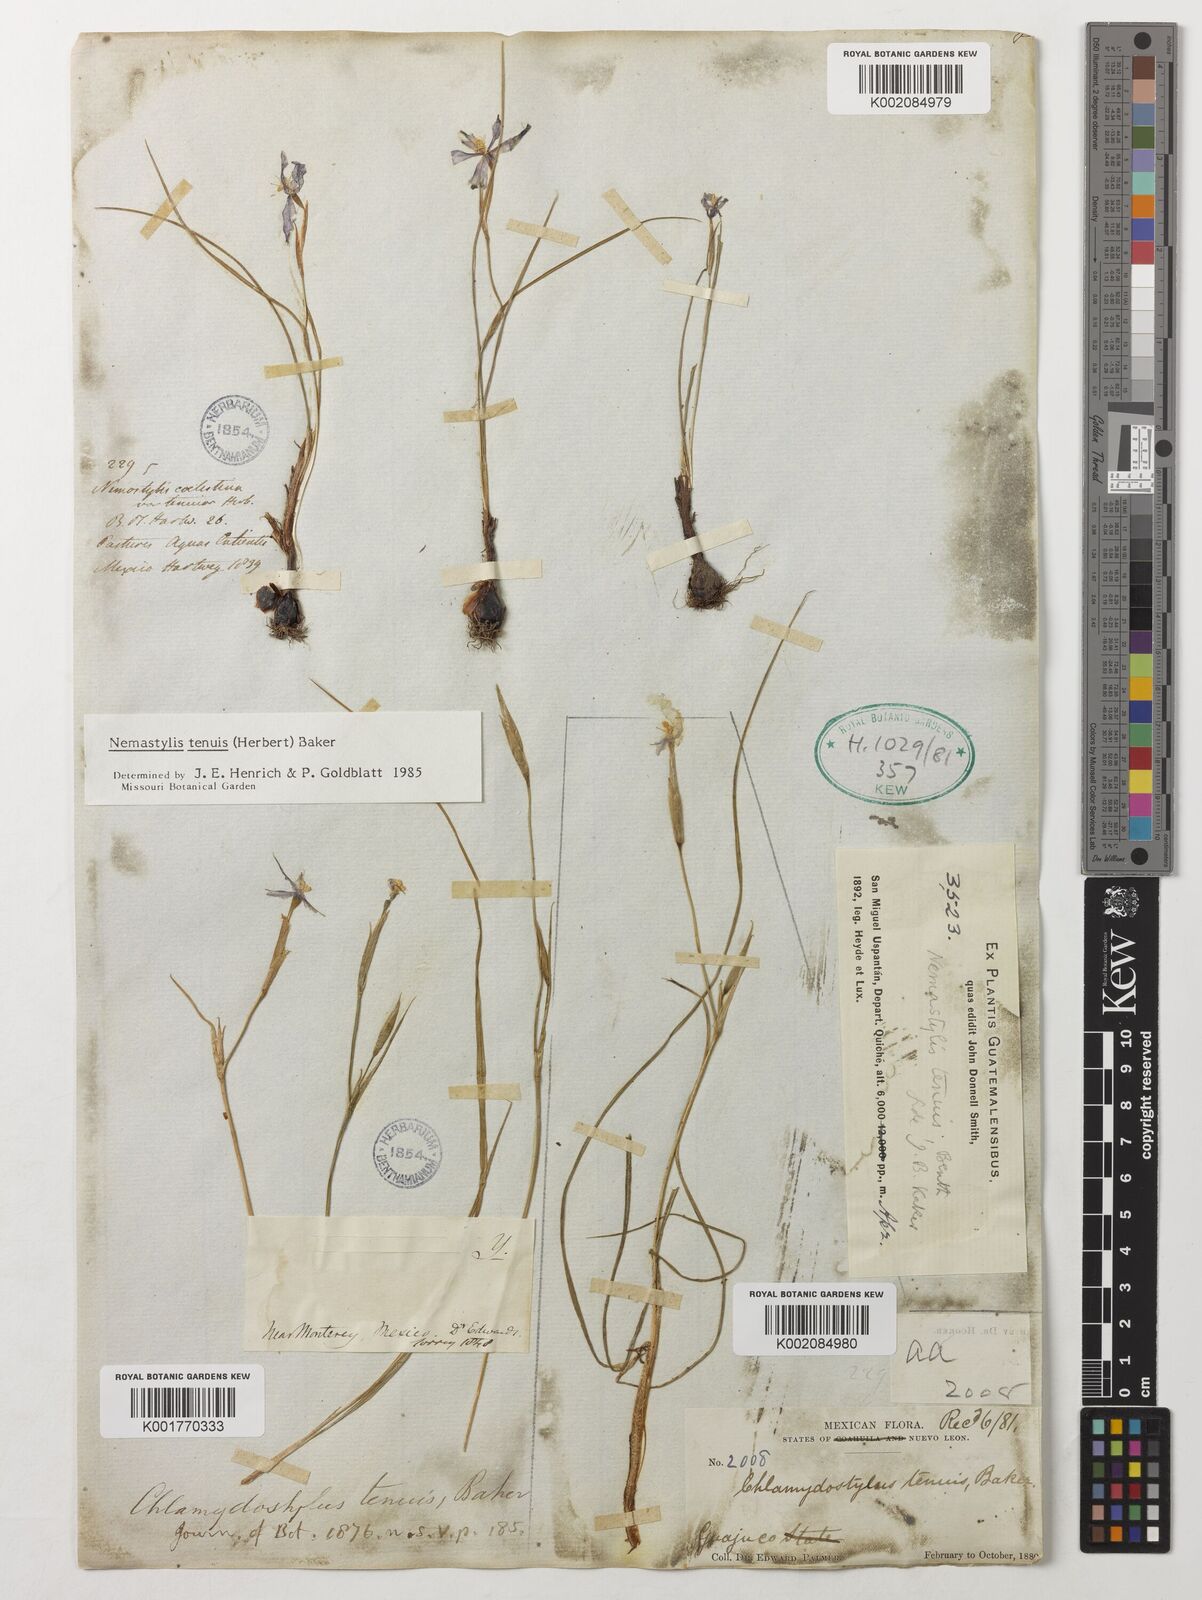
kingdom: Plantae
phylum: Tracheophyta
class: Liliopsida
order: Asparagales
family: Iridaceae
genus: Nemastylis
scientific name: Nemastylis tenuis
